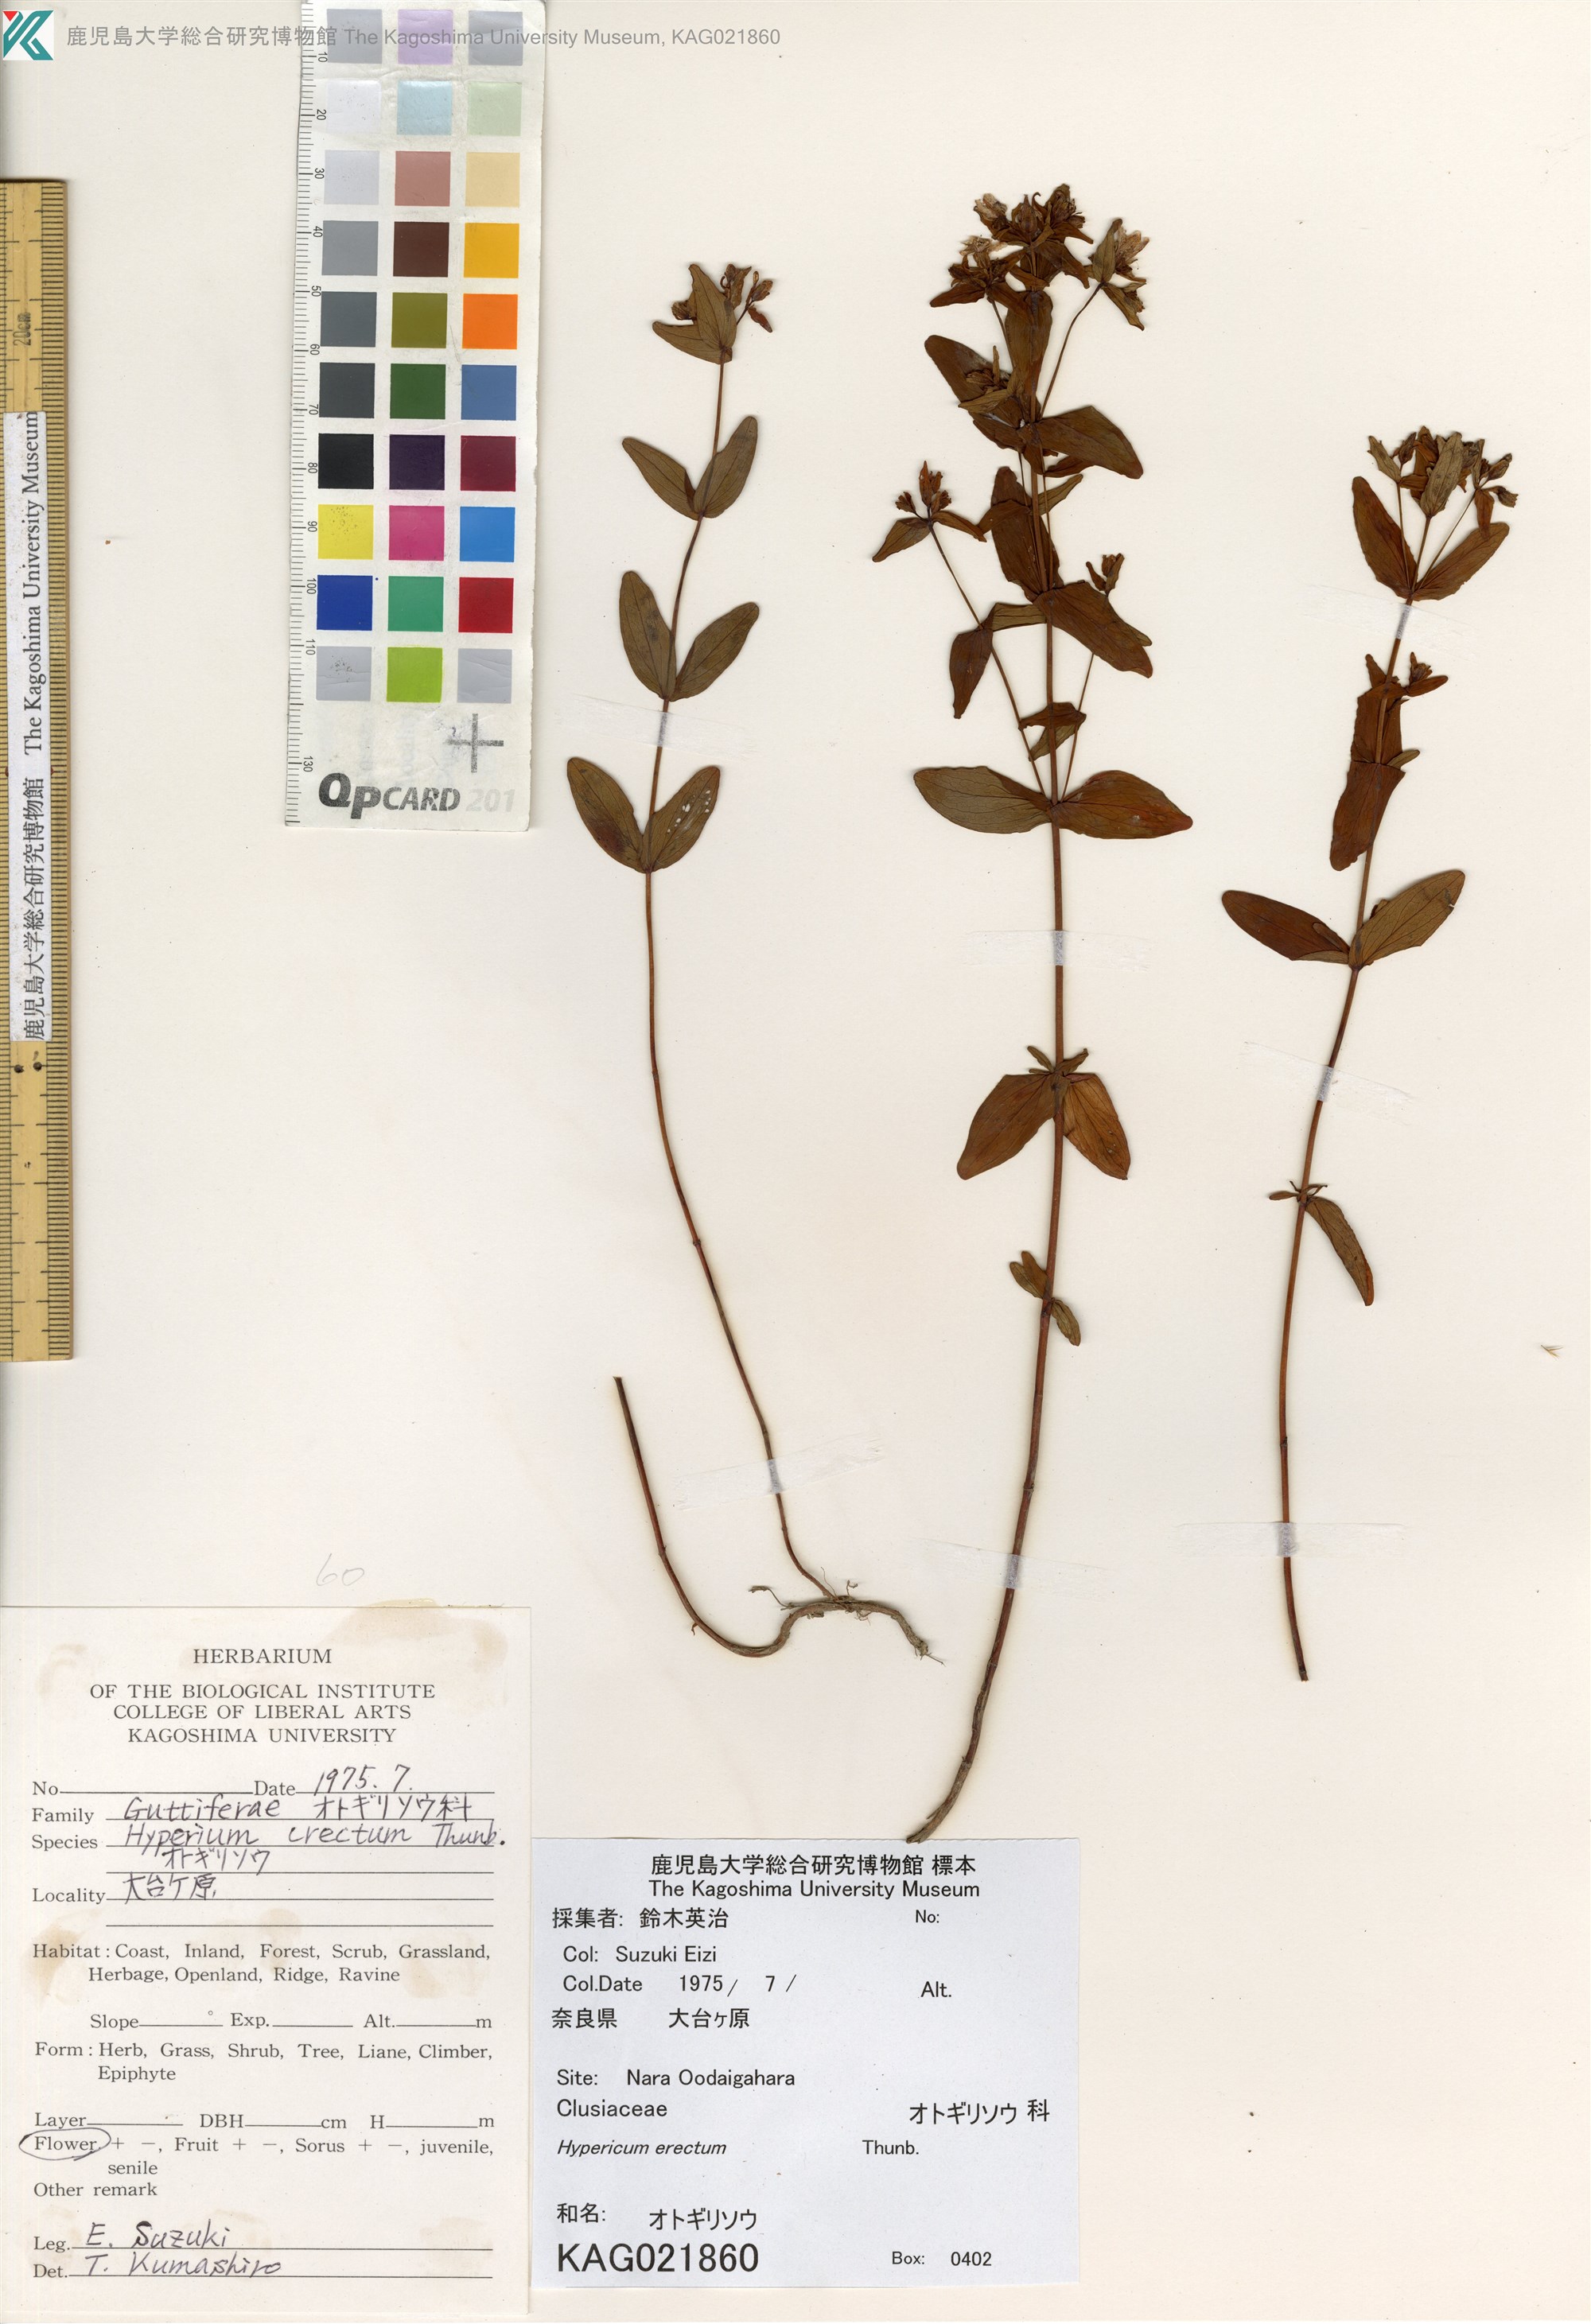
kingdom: Plantae
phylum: Tracheophyta
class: Magnoliopsida
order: Malpighiales
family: Hypericaceae
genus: Hypericum
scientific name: Hypericum erectum
